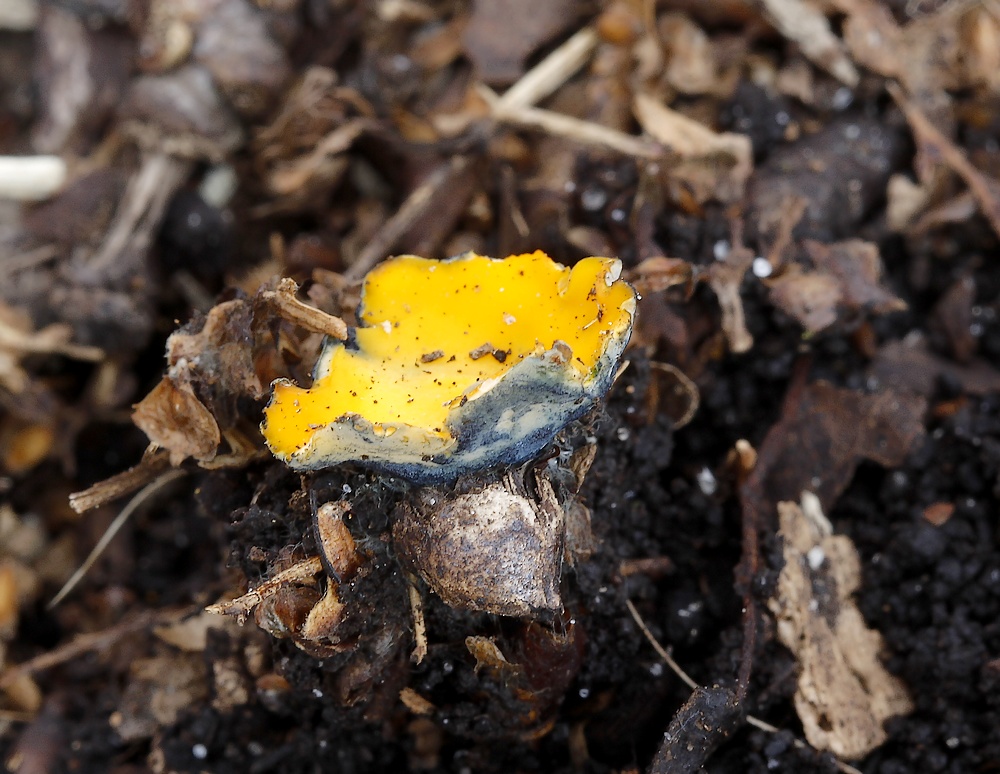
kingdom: Fungi
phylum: Ascomycota
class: Pezizomycetes
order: Pezizales
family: Caloscyphaceae
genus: Caloscypha
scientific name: Caloscypha fulgens
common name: jadebæger
